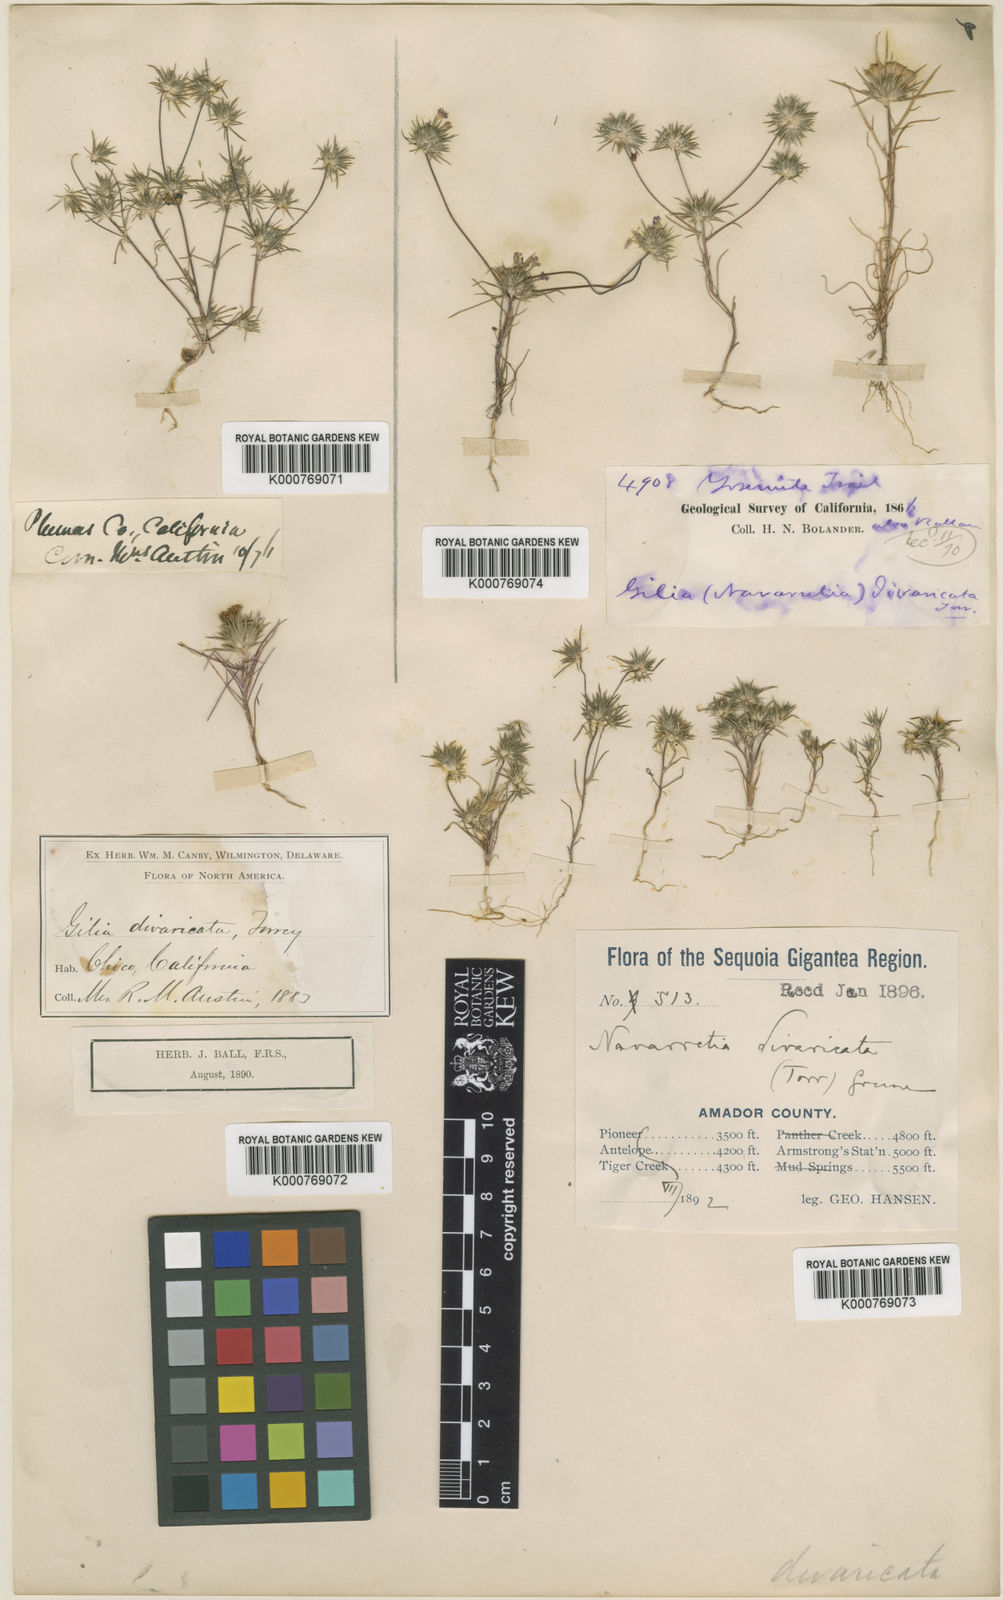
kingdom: Plantae
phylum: Tracheophyta
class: Magnoliopsida
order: Ericales
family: Polemoniaceae
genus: Navarretia
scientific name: Navarretia divaricata
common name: Mountain navarretia
